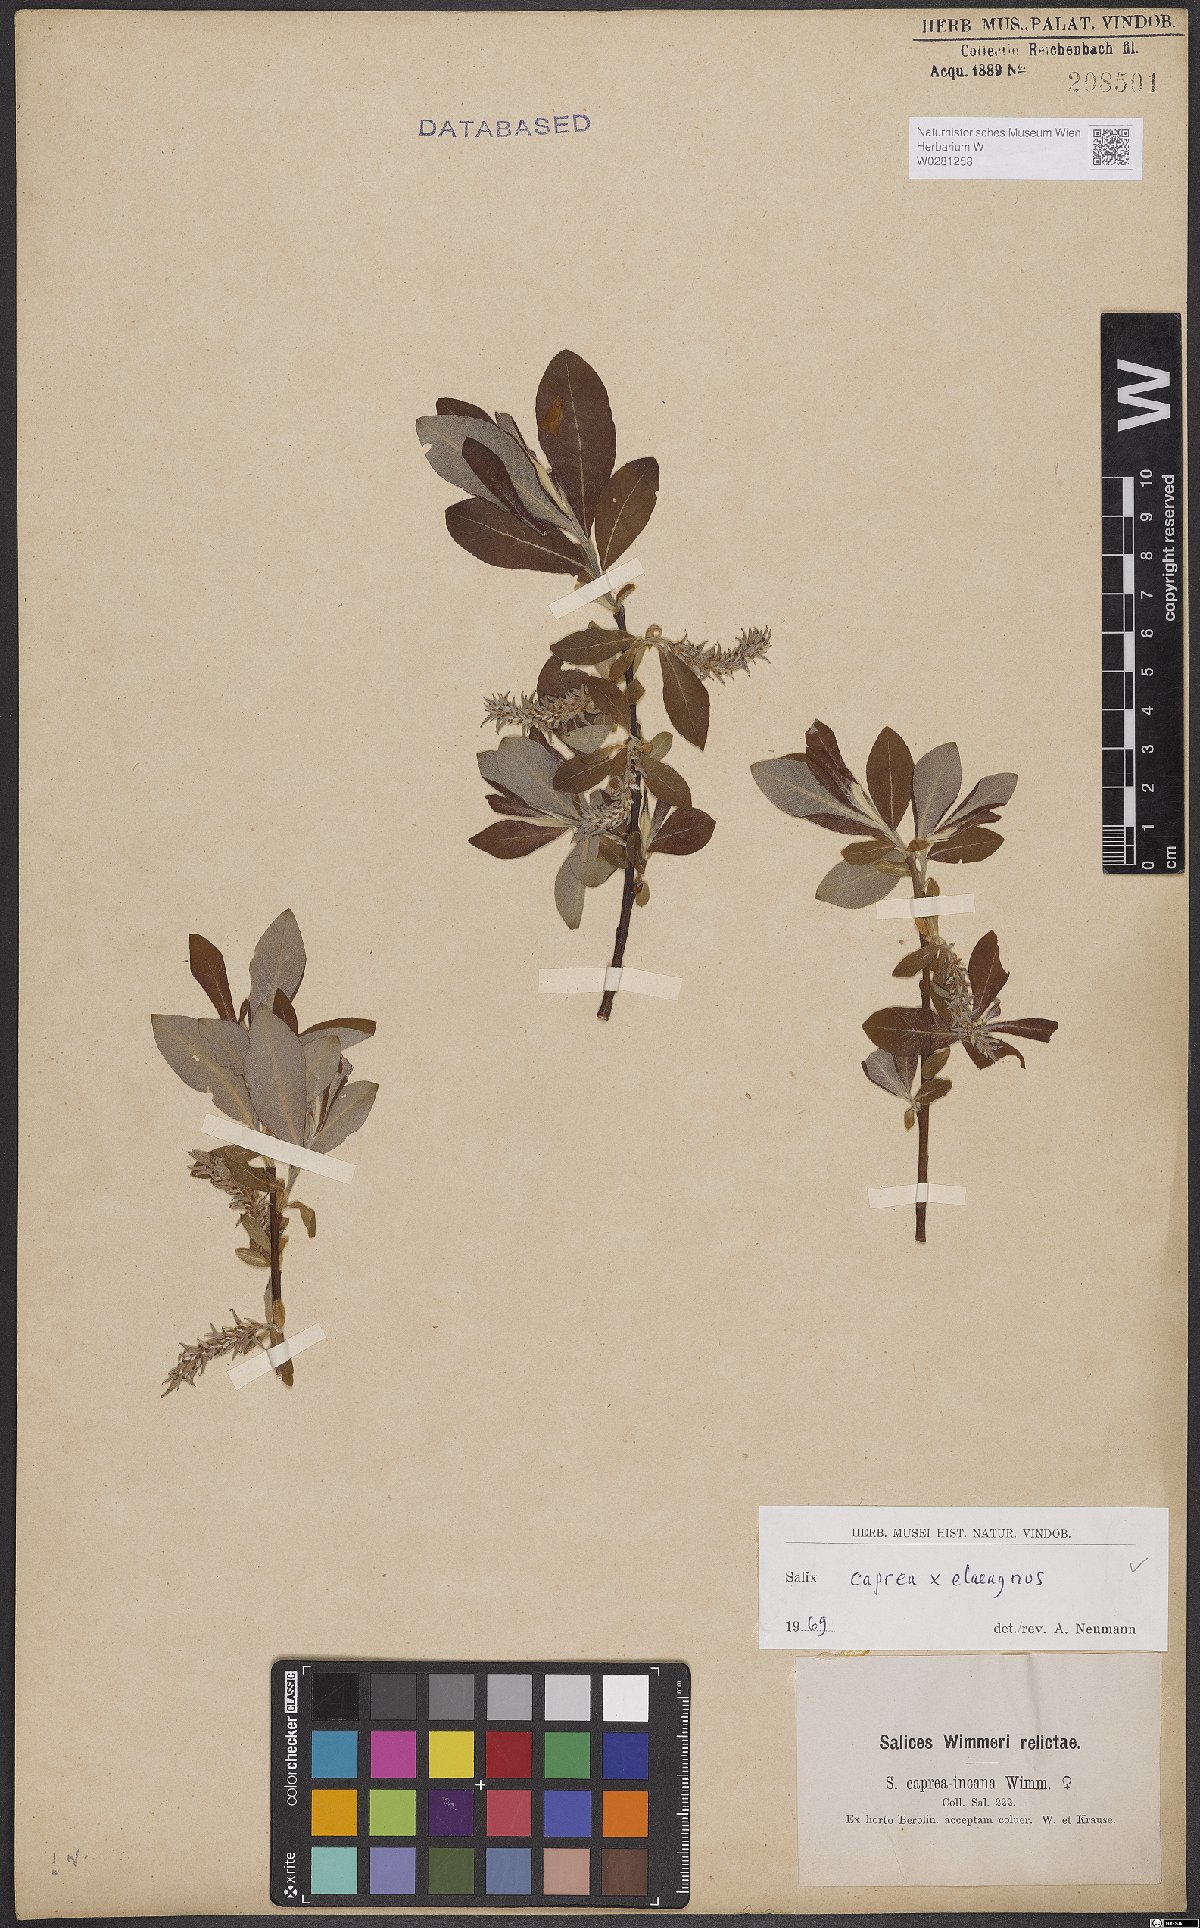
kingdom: Plantae
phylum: Tracheophyta
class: Magnoliopsida
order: Malpighiales
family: Salicaceae
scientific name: Salicaceae
